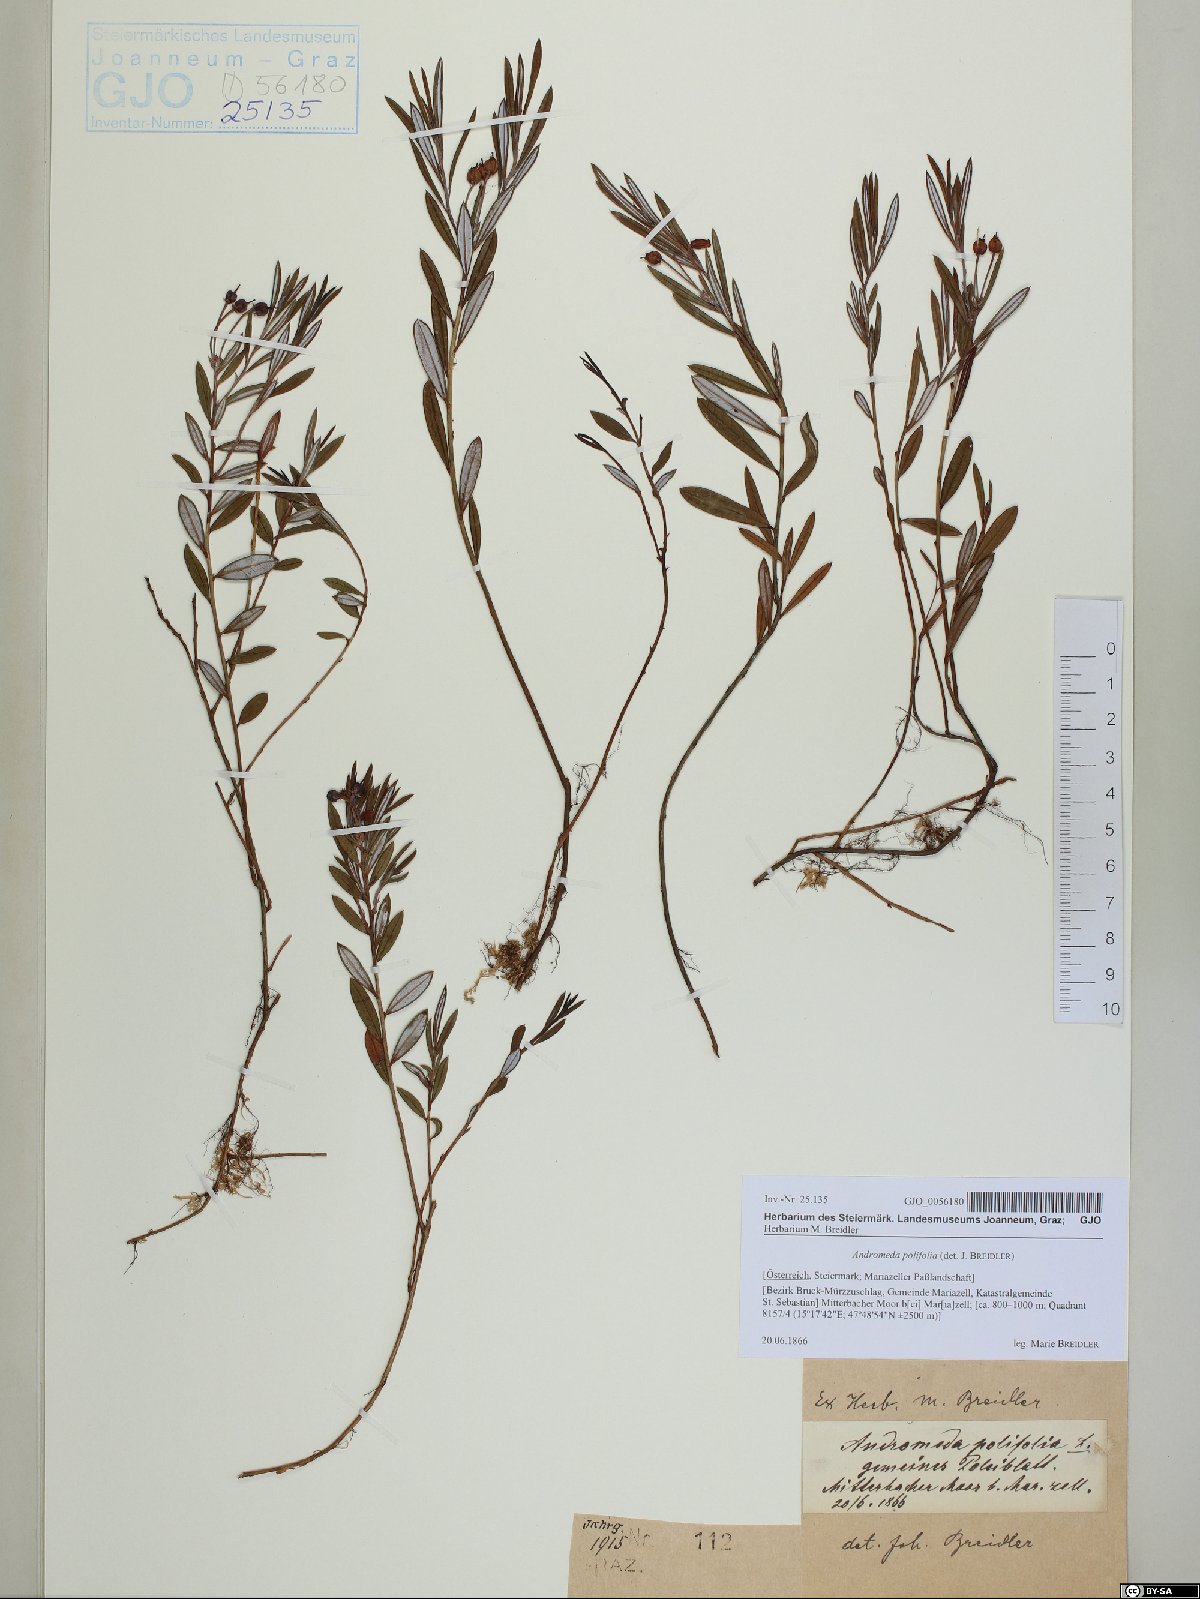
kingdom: Plantae
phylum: Tracheophyta
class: Magnoliopsida
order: Ericales
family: Ericaceae
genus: Andromeda
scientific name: Andromeda polifolia
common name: Bog-rosemary
